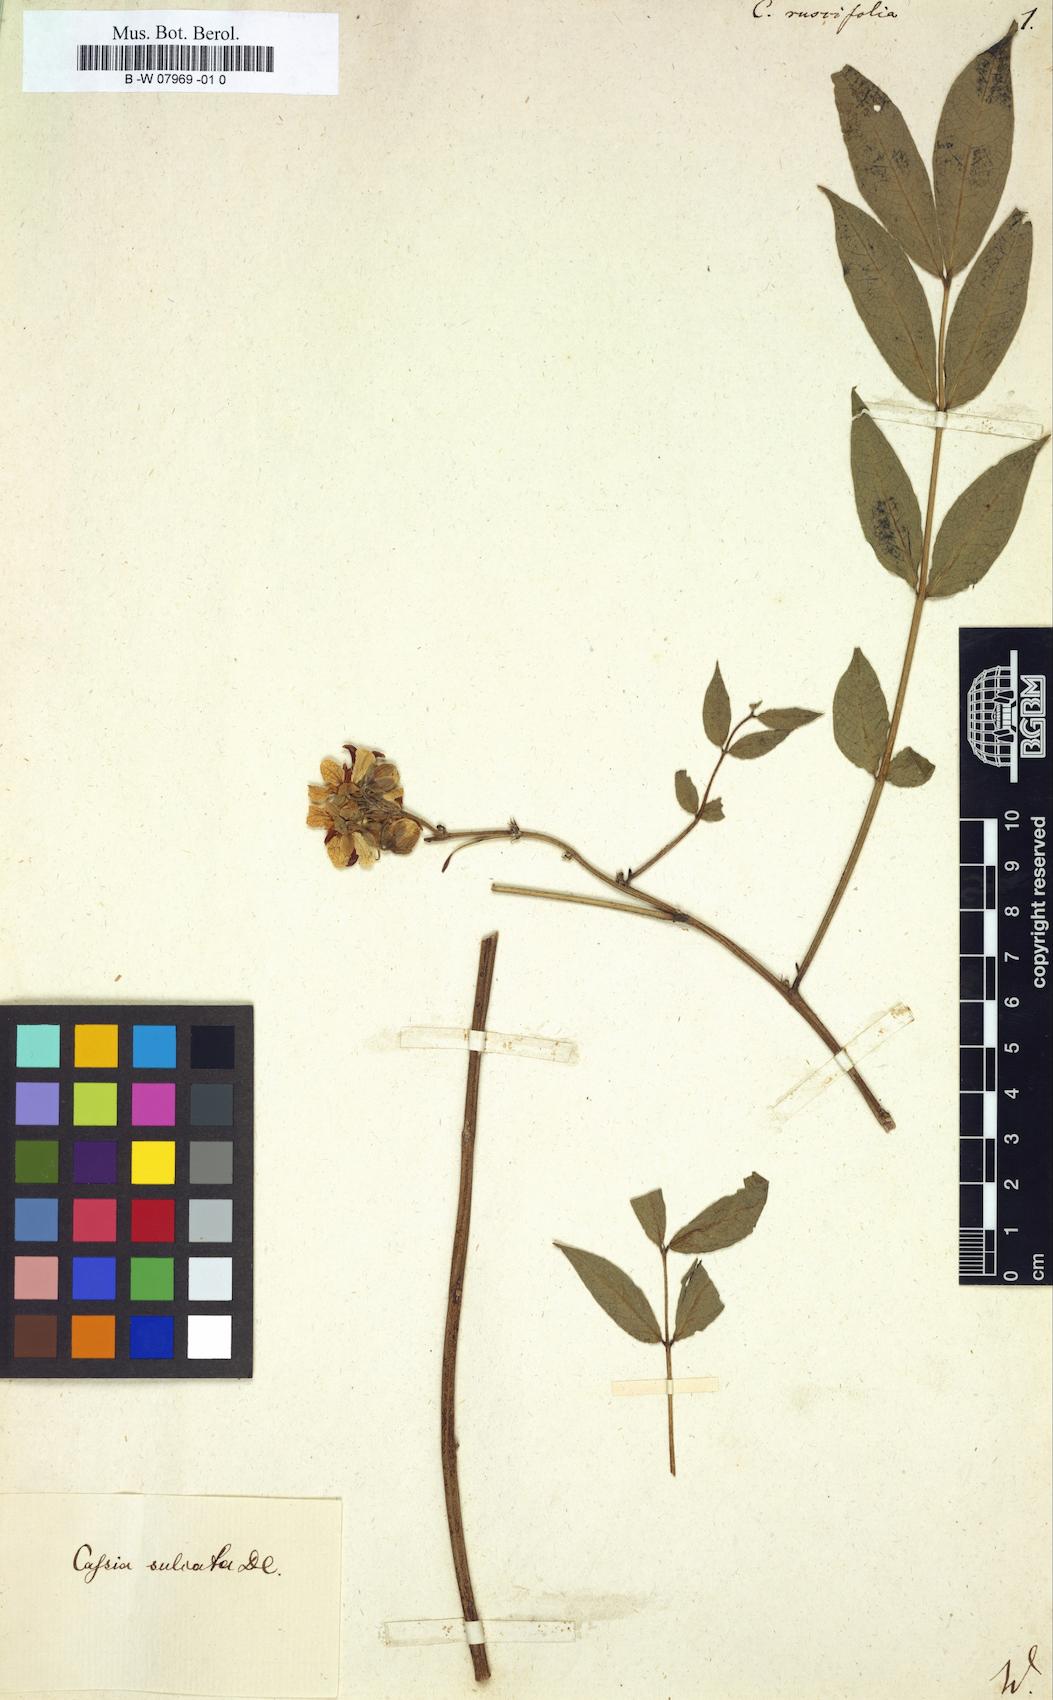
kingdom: Plantae
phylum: Tracheophyta
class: Magnoliopsida
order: Fabales
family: Fabaceae
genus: Senna
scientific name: Senna sophera
